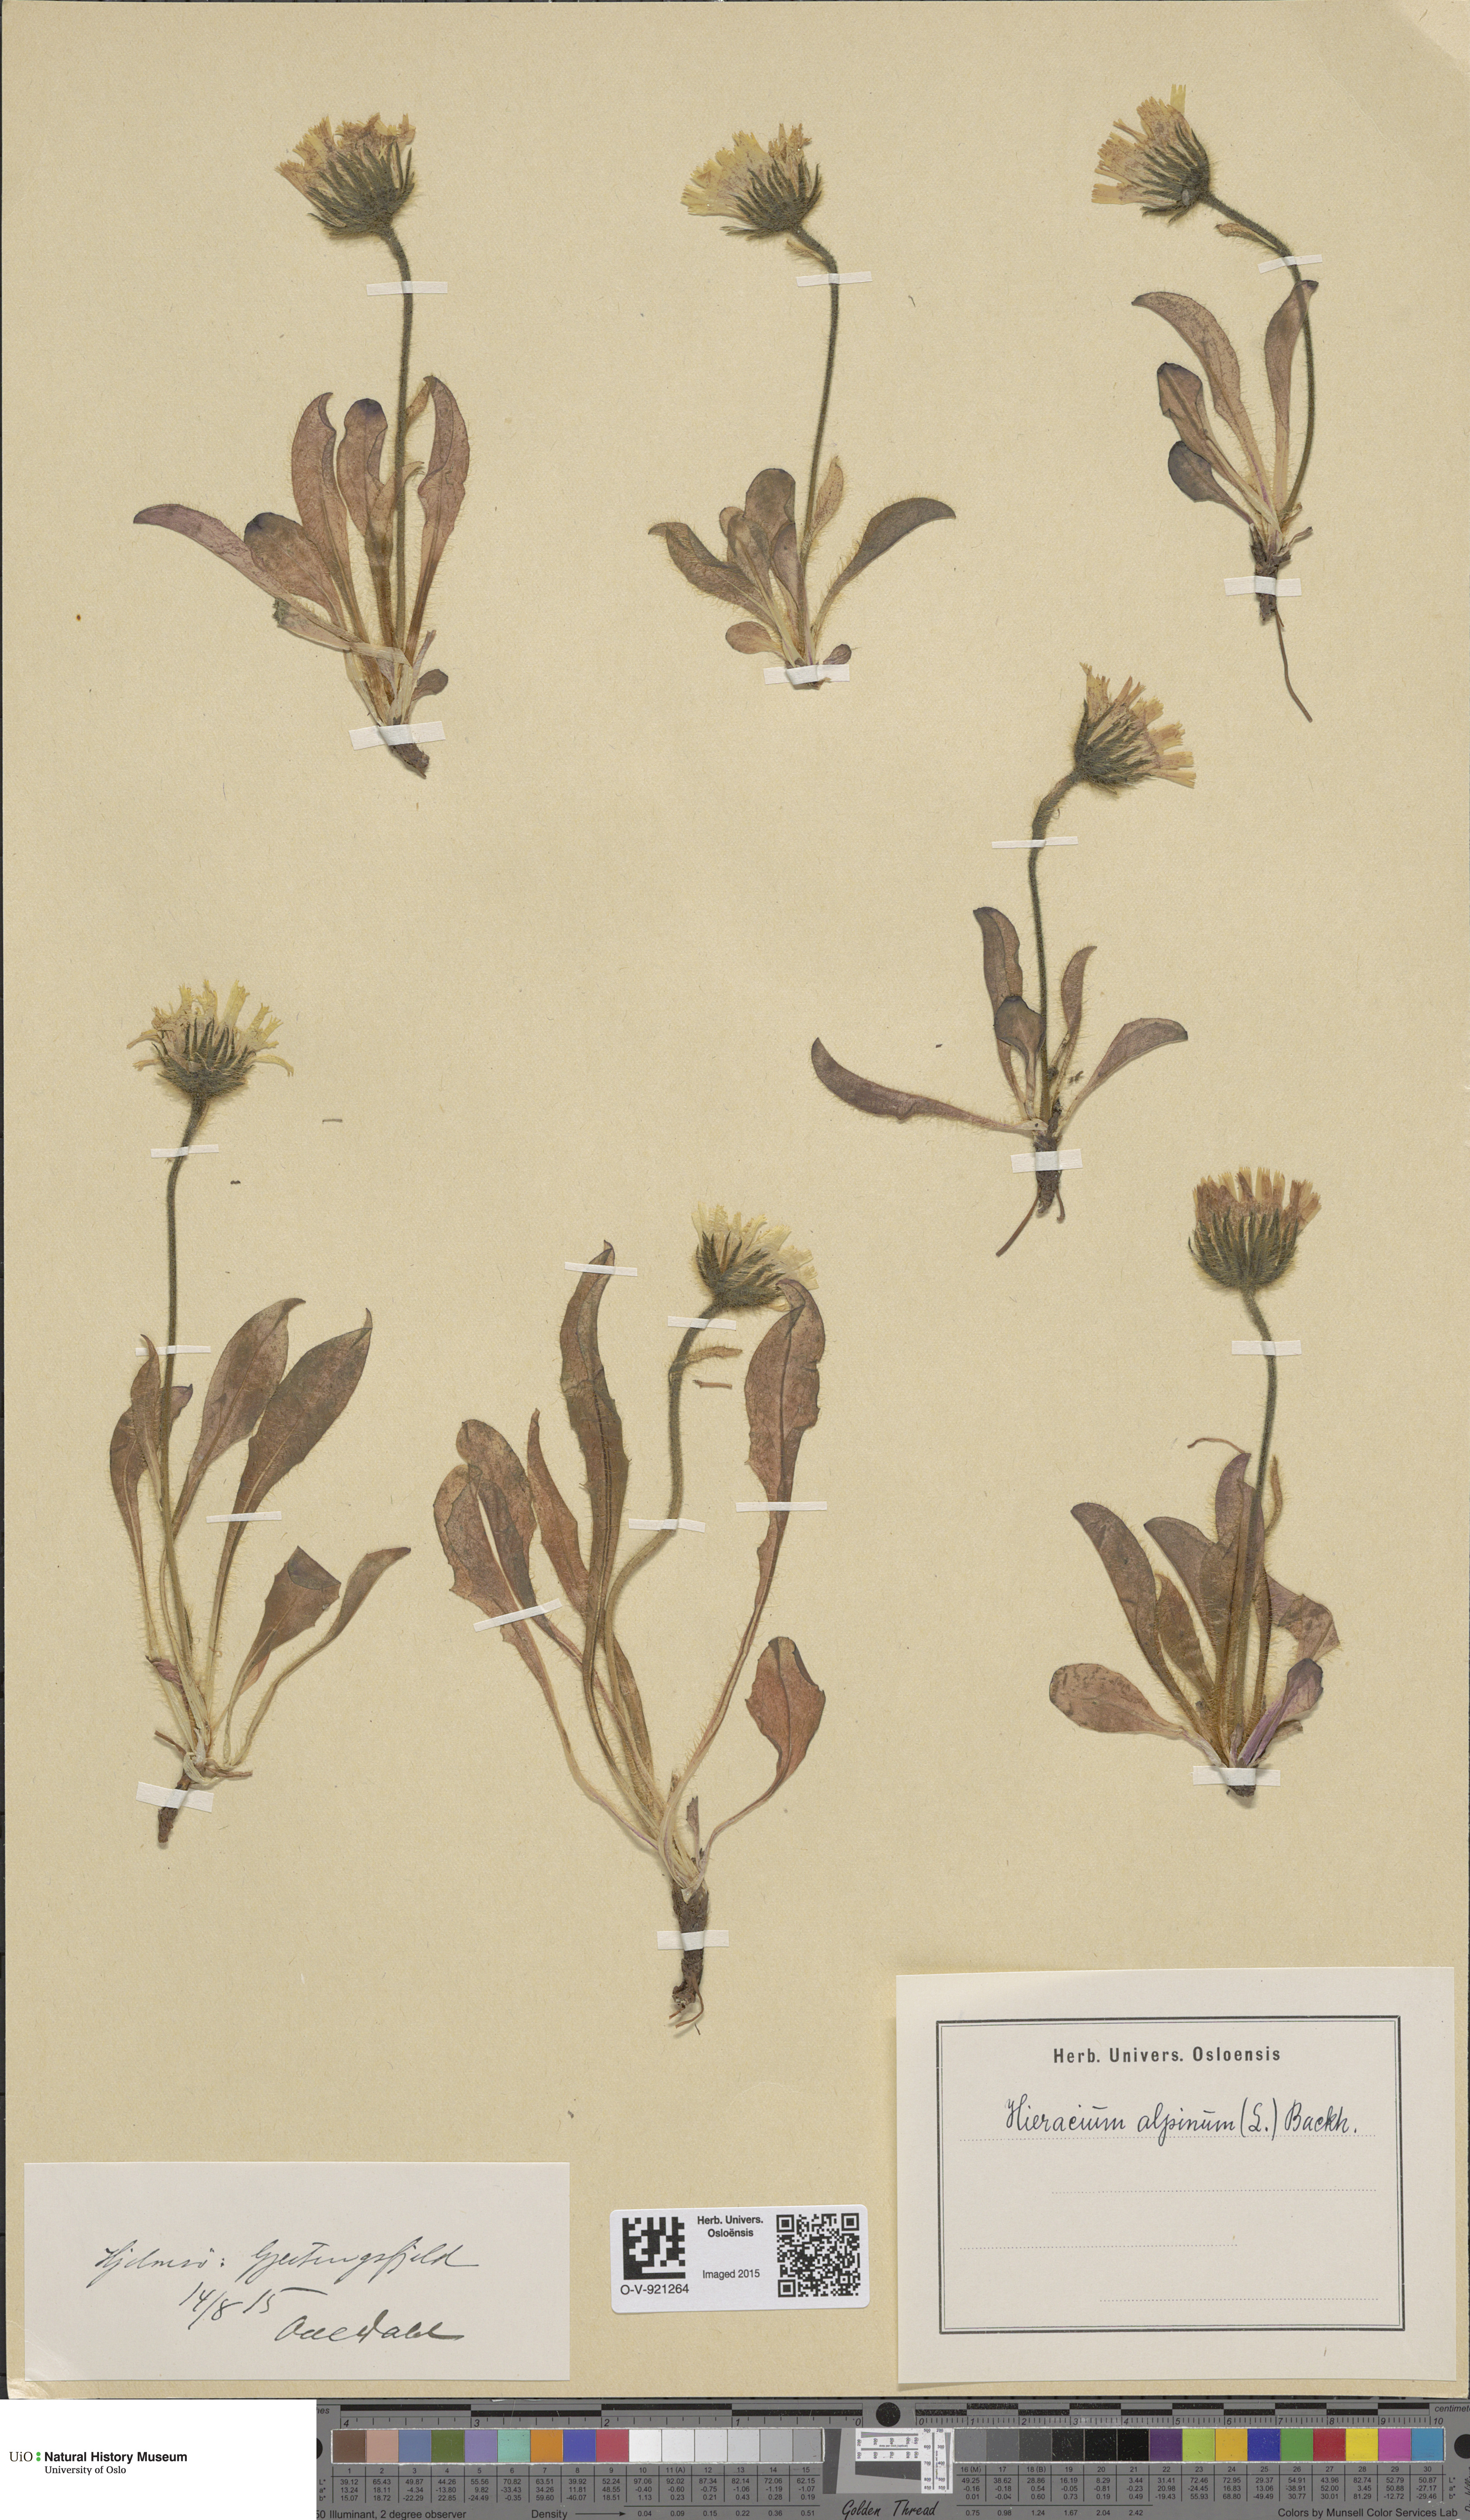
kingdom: Plantae
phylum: Tracheophyta
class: Magnoliopsida
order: Asterales
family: Asteraceae
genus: Hieracium
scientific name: Hieracium alpinum
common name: Alpine hawkweed
